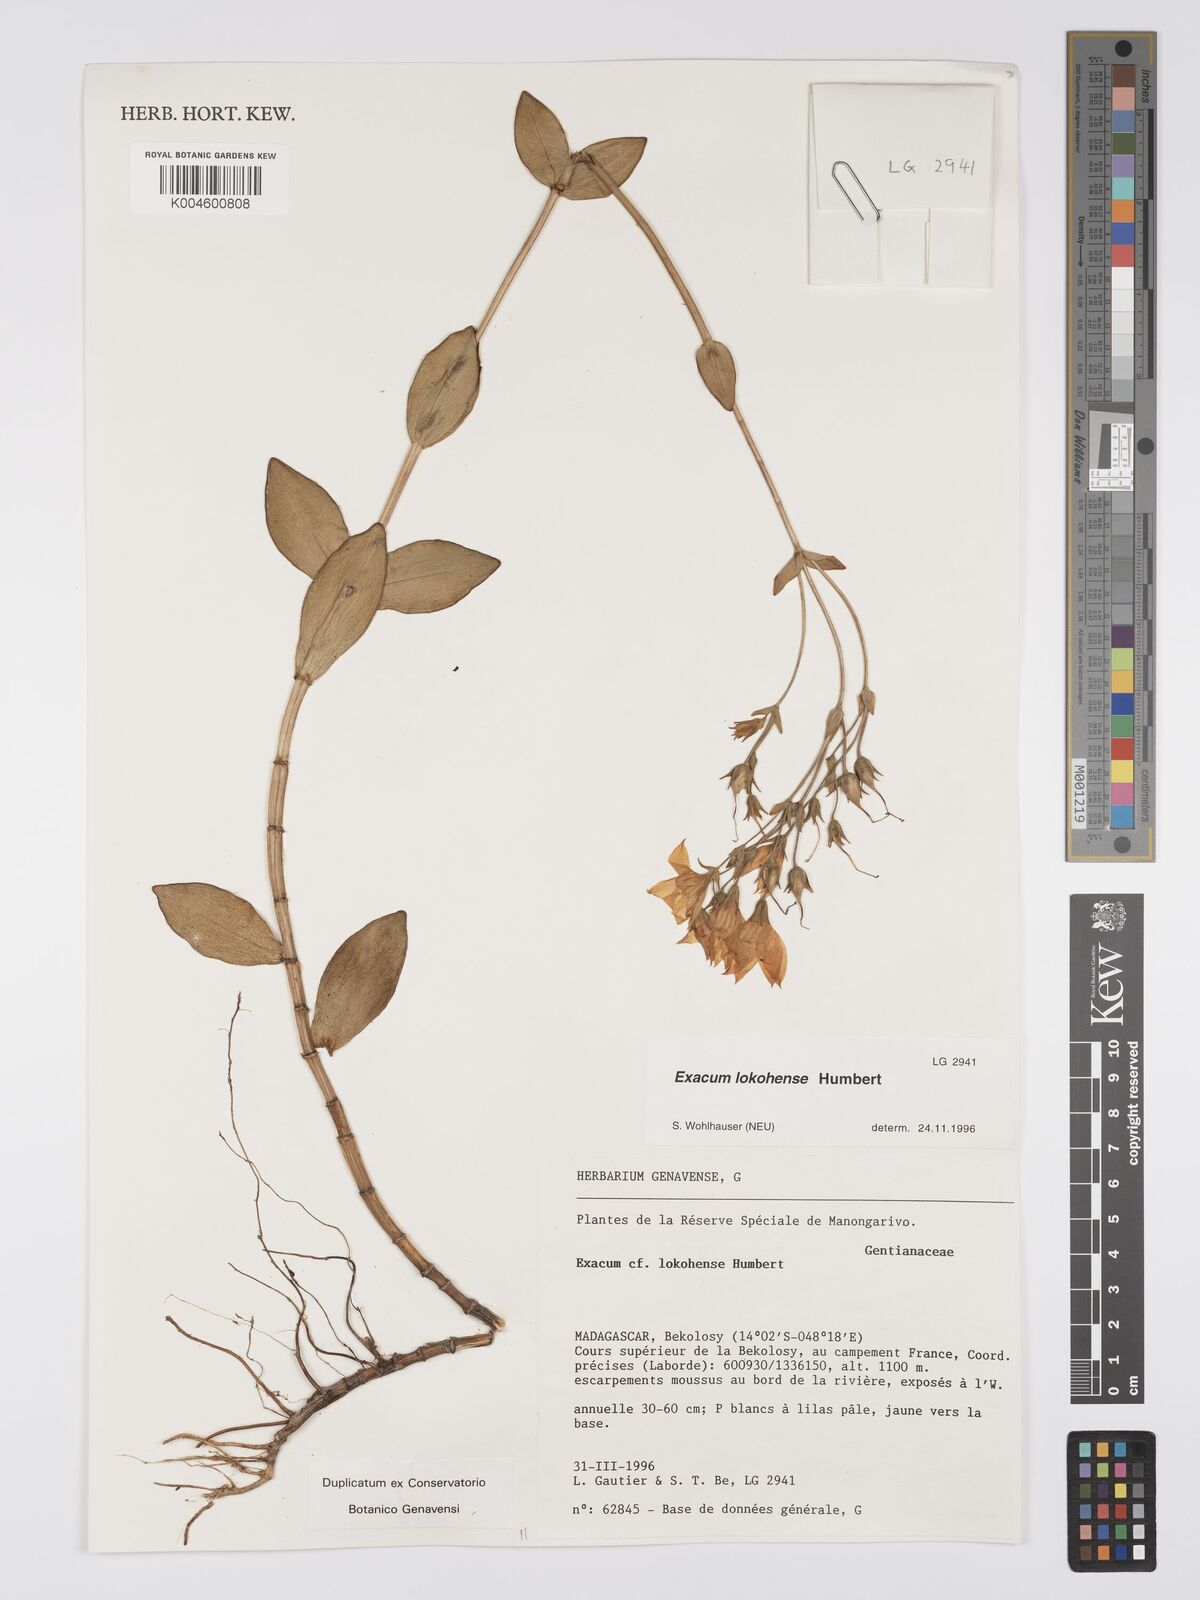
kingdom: Plantae
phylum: Tracheophyta
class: Magnoliopsida
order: Gentianales
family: Gentianaceae
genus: Exacum
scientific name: Exacum lokohense
